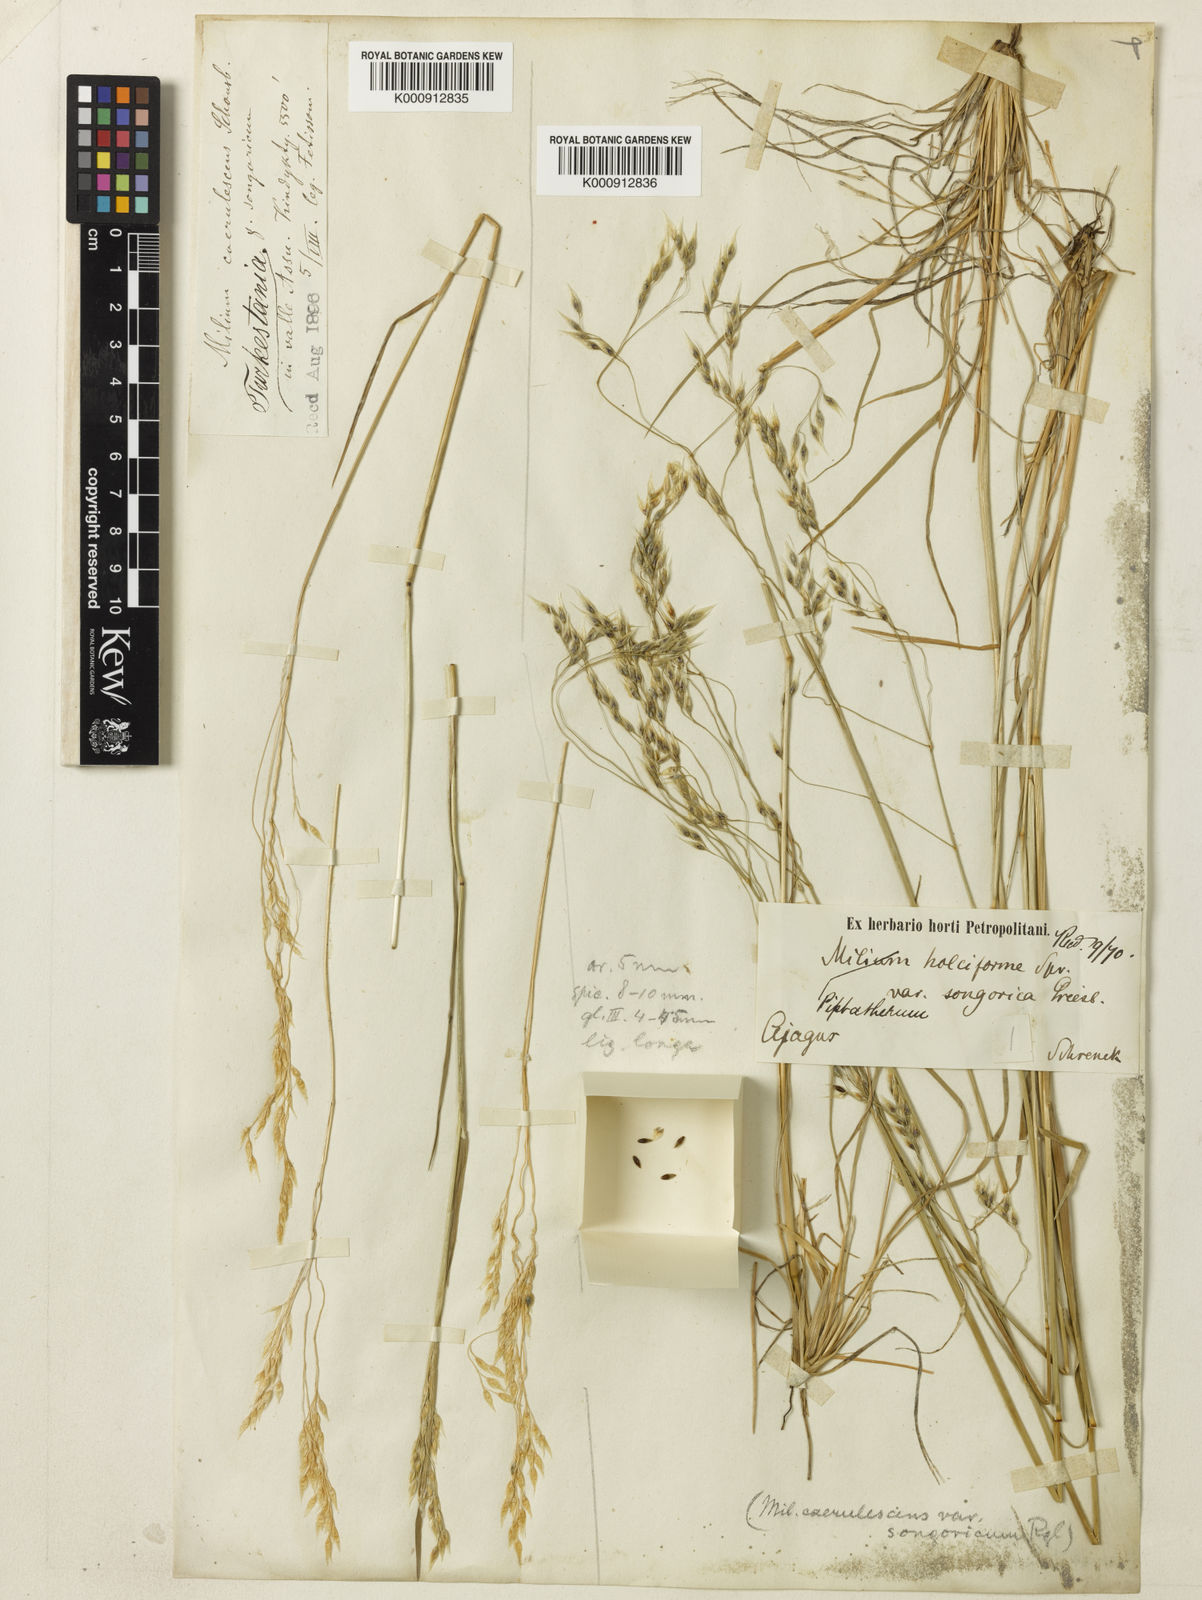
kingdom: Plantae
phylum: Tracheophyta
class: Liliopsida
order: Poales
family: Poaceae
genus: Piptatherum
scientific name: Piptatherum songaricum
